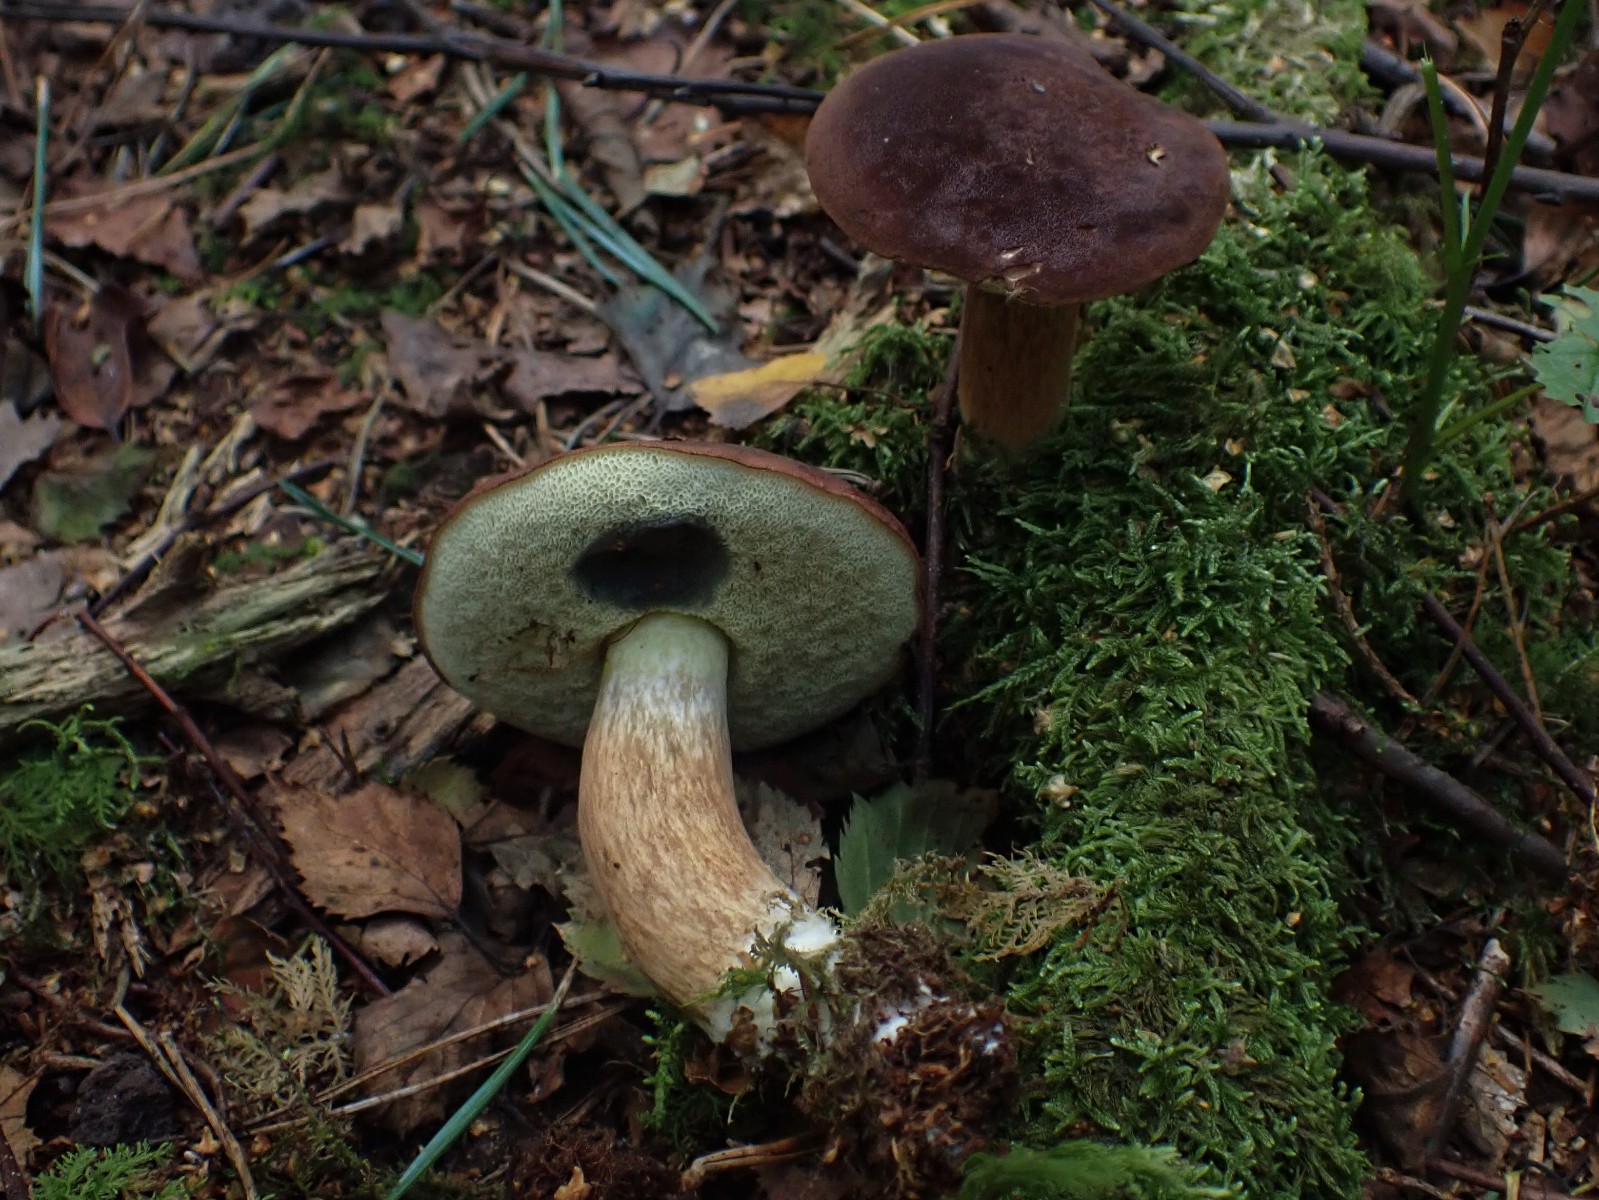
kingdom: Fungi
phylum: Basidiomycota
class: Agaricomycetes
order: Boletales
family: Boletaceae
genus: Imleria
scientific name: Imleria badia
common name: brunstokket rørhat
